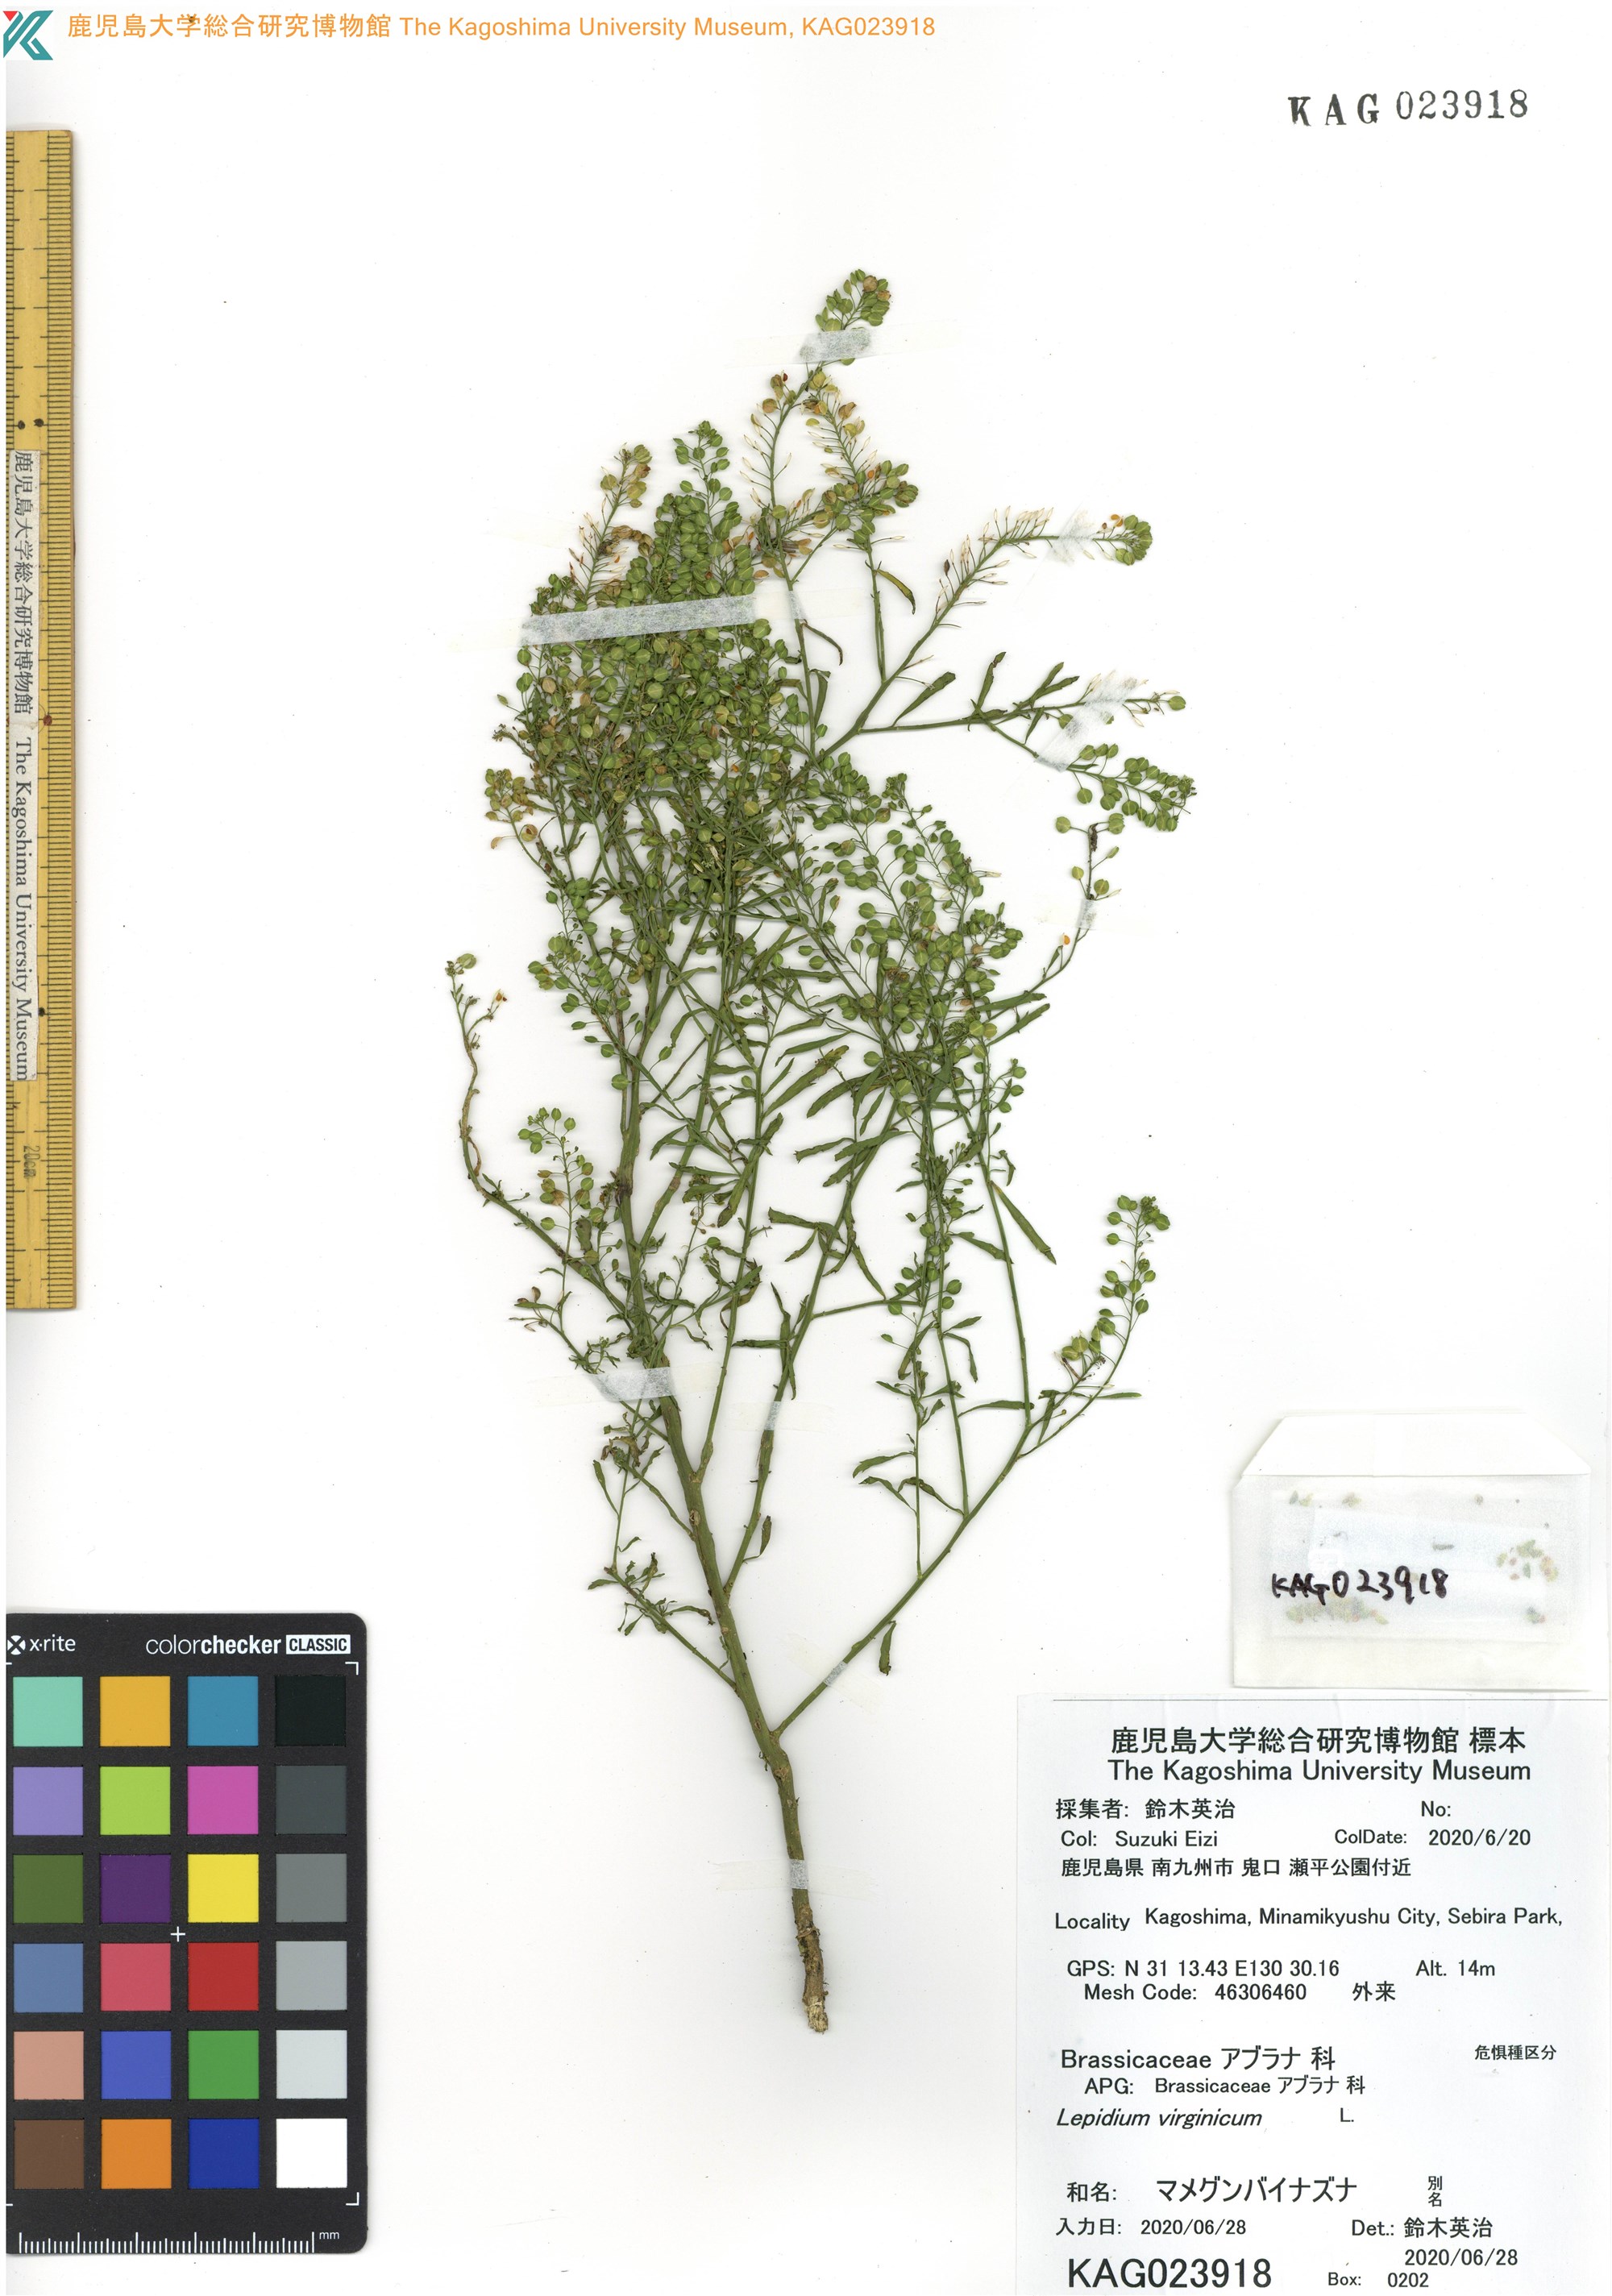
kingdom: Plantae
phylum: Tracheophyta
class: Magnoliopsida
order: Brassicales
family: Brassicaceae
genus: Lepidium
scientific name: Lepidium virginicum
